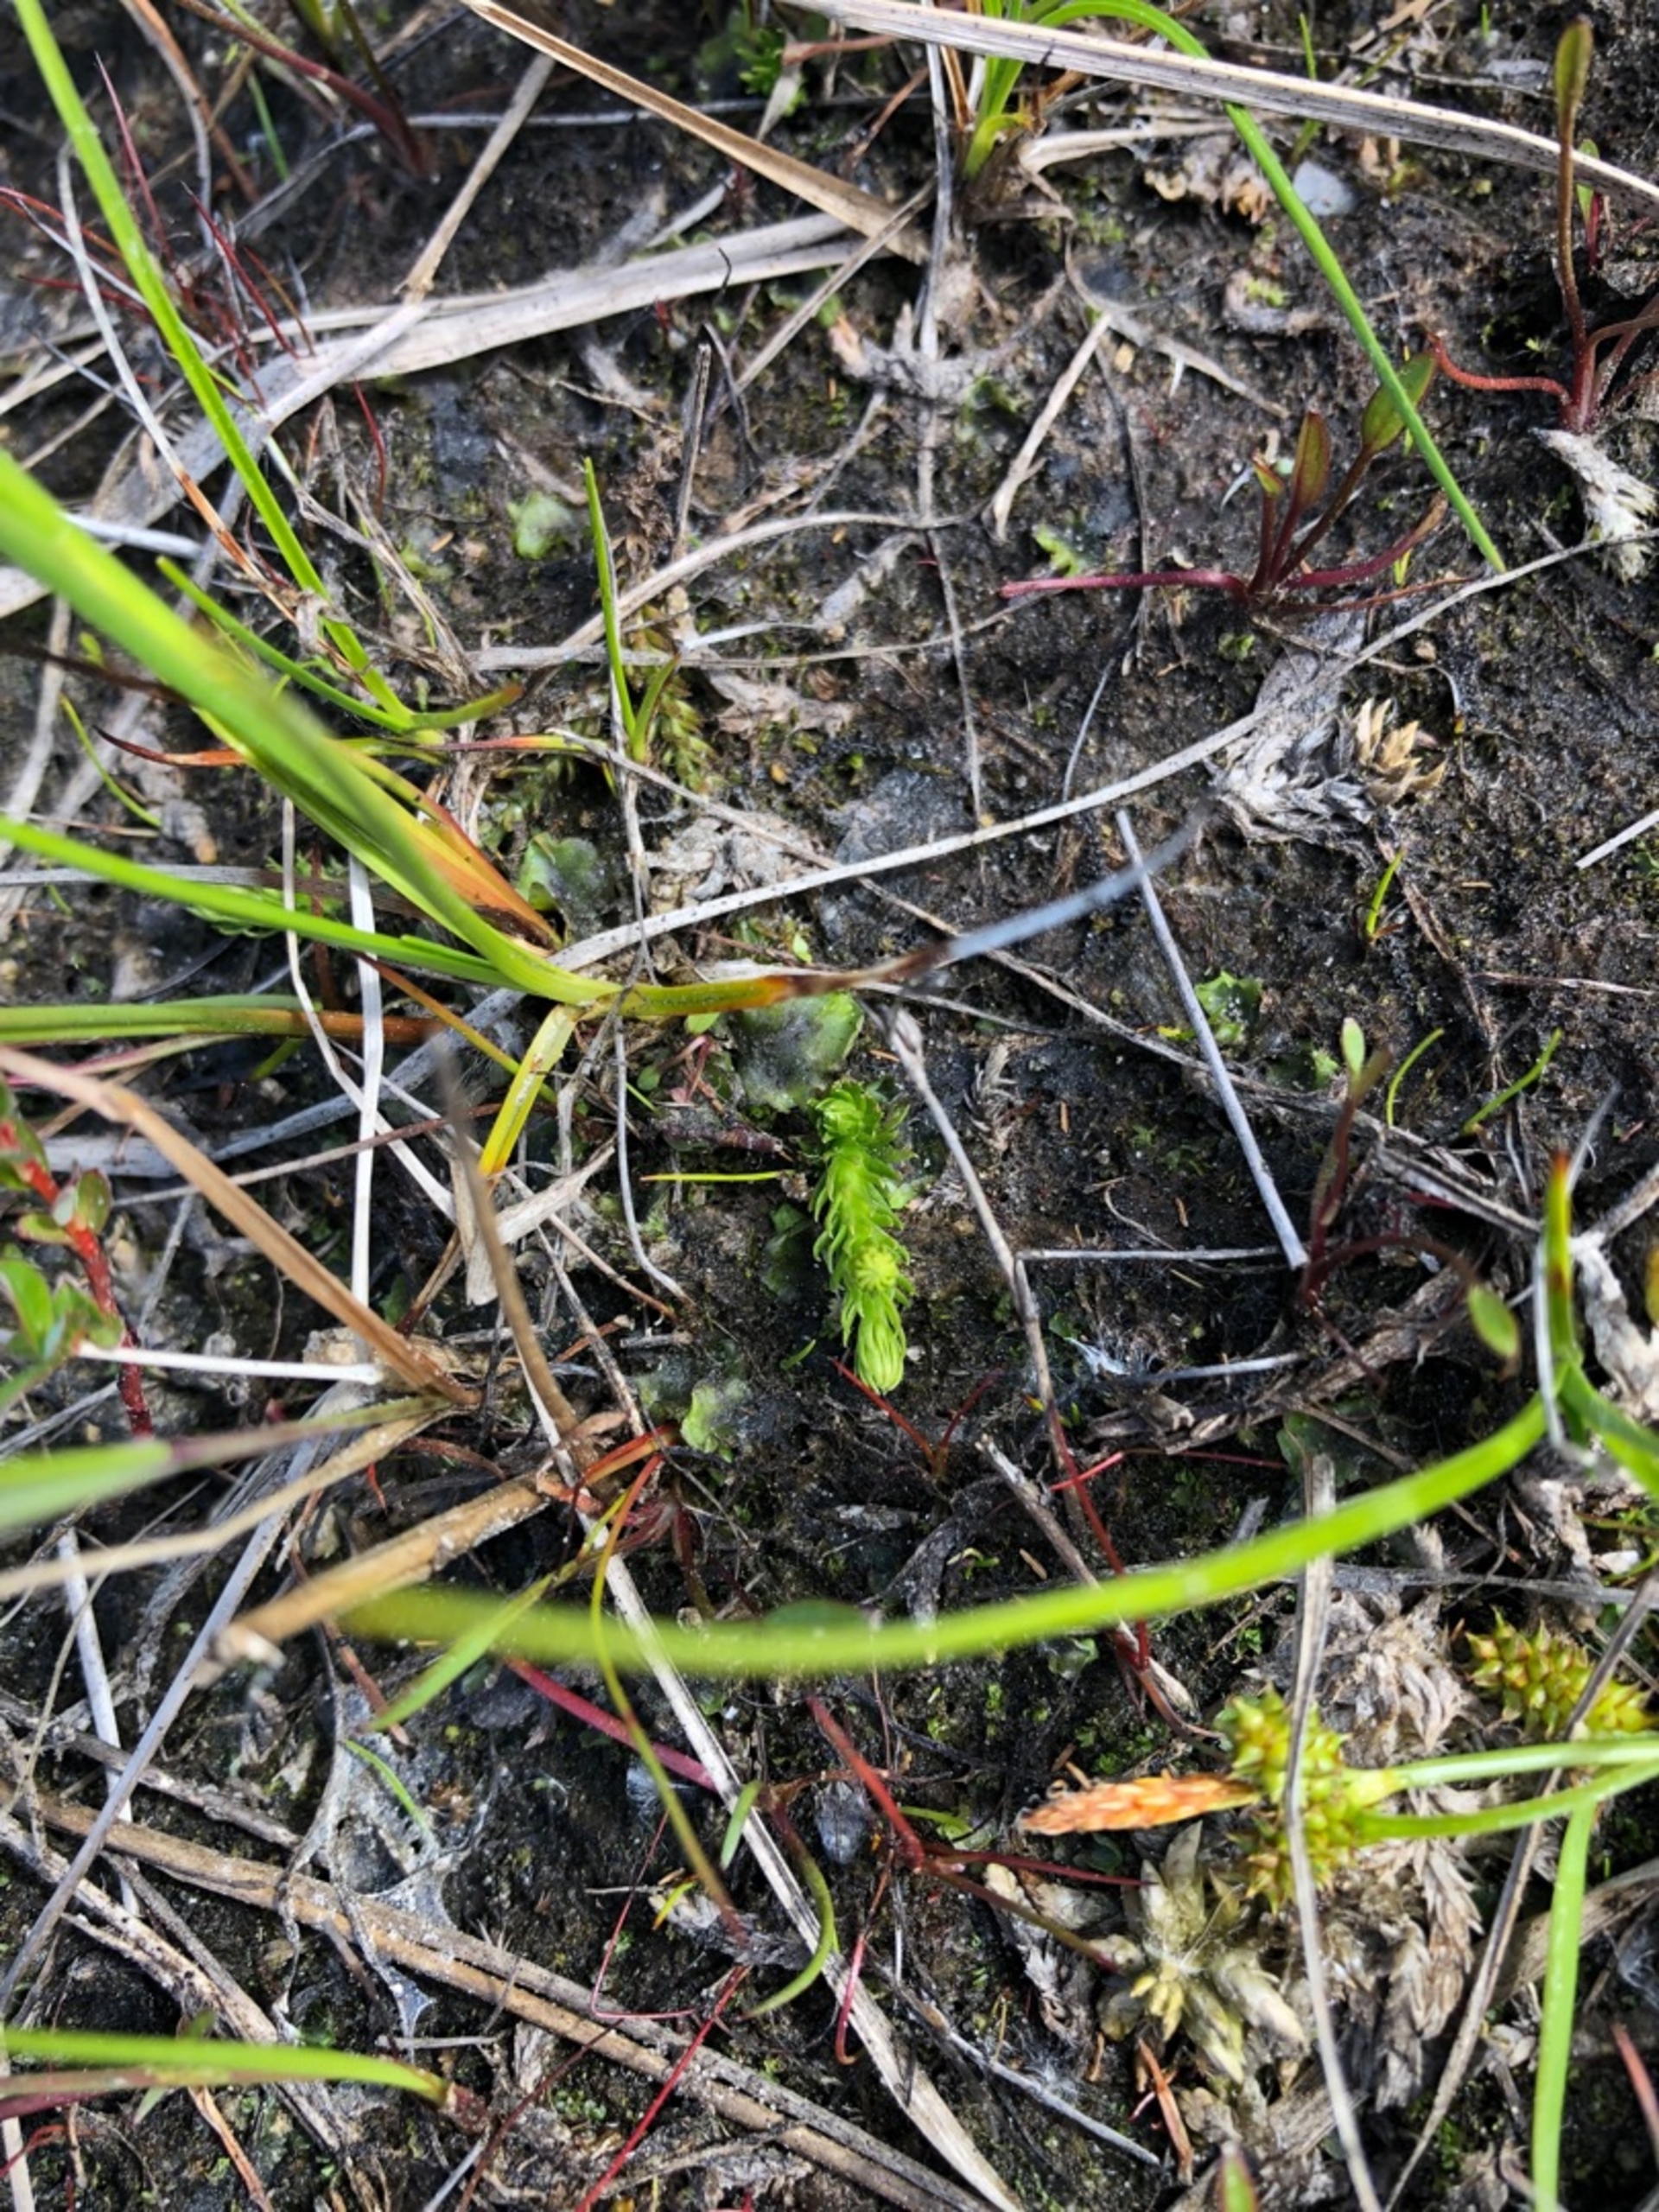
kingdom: Plantae
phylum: Tracheophyta
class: Lycopodiopsida
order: Lycopodiales
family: Lycopodiaceae
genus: Lycopodiella
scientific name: Lycopodiella inundata
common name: Liden ulvefod
